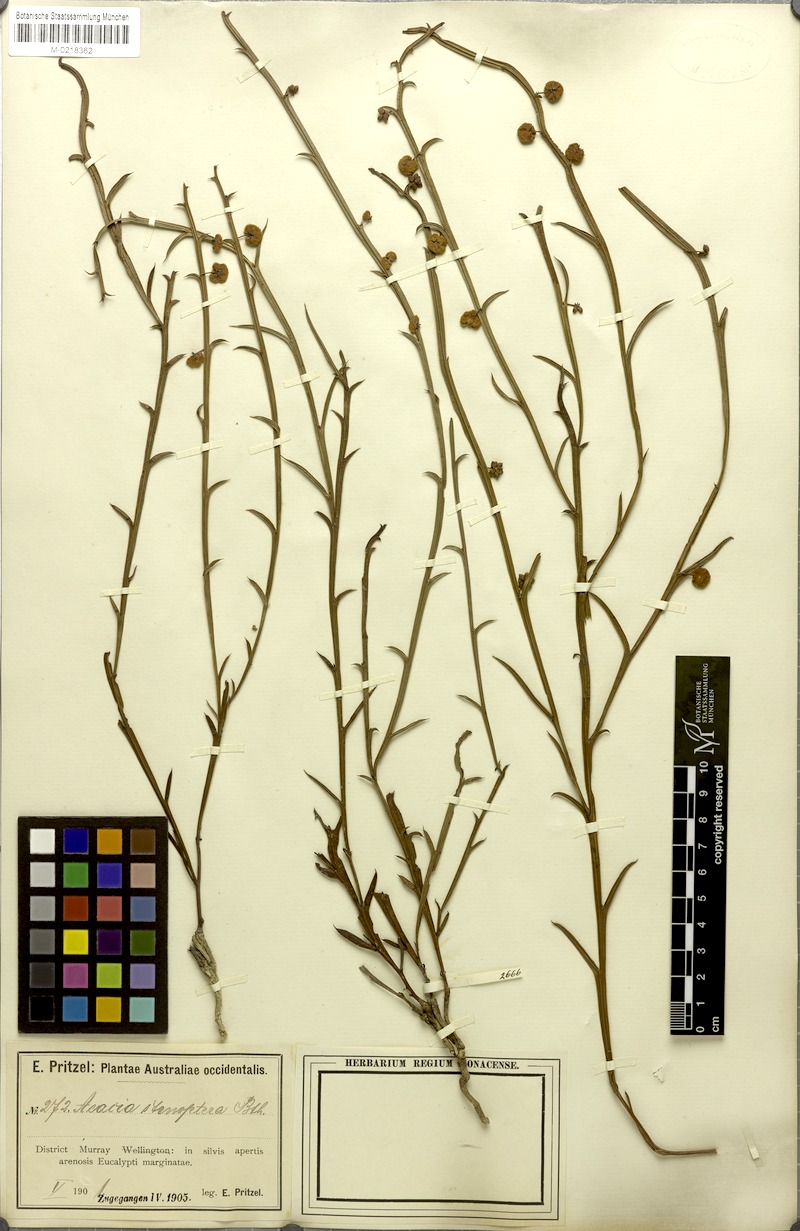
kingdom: Plantae
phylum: Tracheophyta
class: Magnoliopsida
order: Fabales
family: Fabaceae
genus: Acacia
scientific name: Acacia stenoptera
